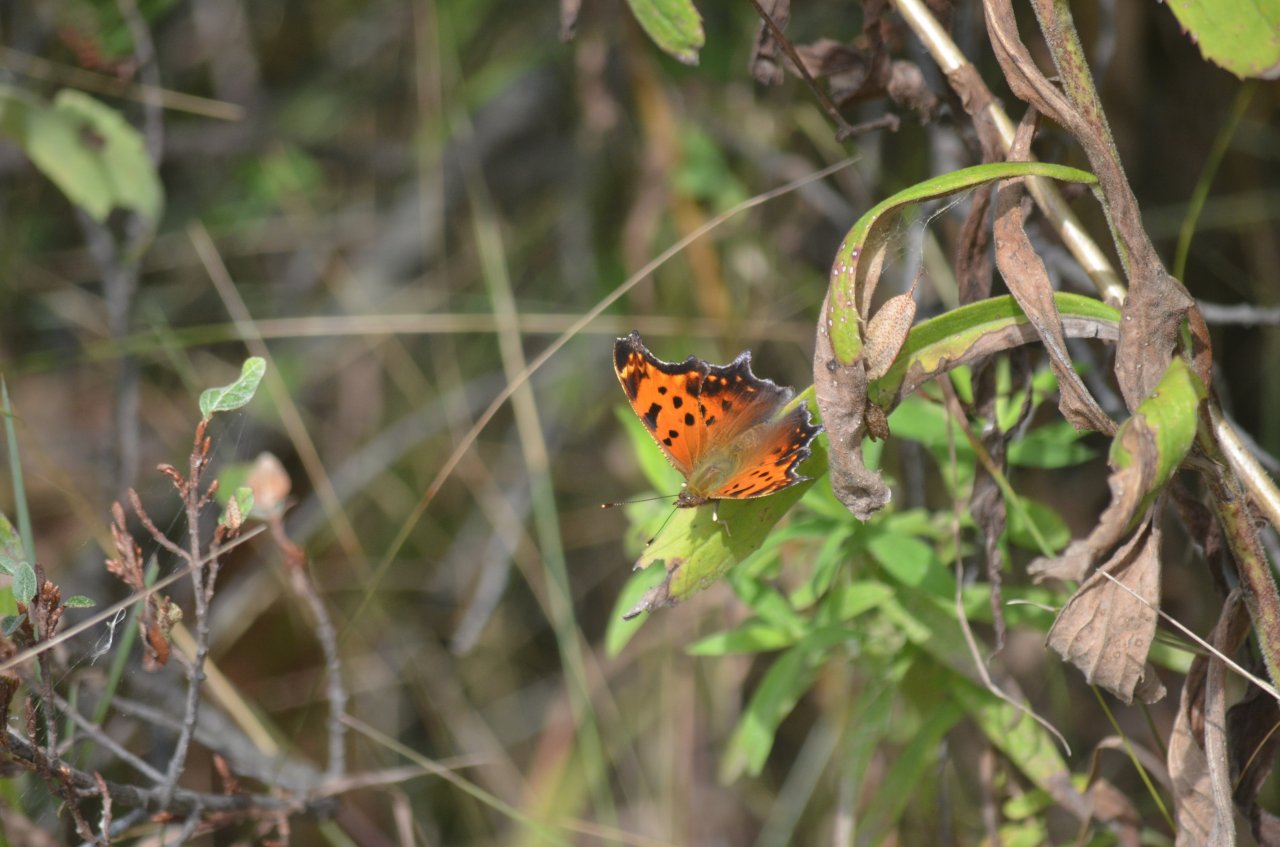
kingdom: Animalia
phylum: Arthropoda
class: Insecta
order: Lepidoptera
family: Nymphalidae
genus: Polygonia
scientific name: Polygonia comma
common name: Eastern Comma
